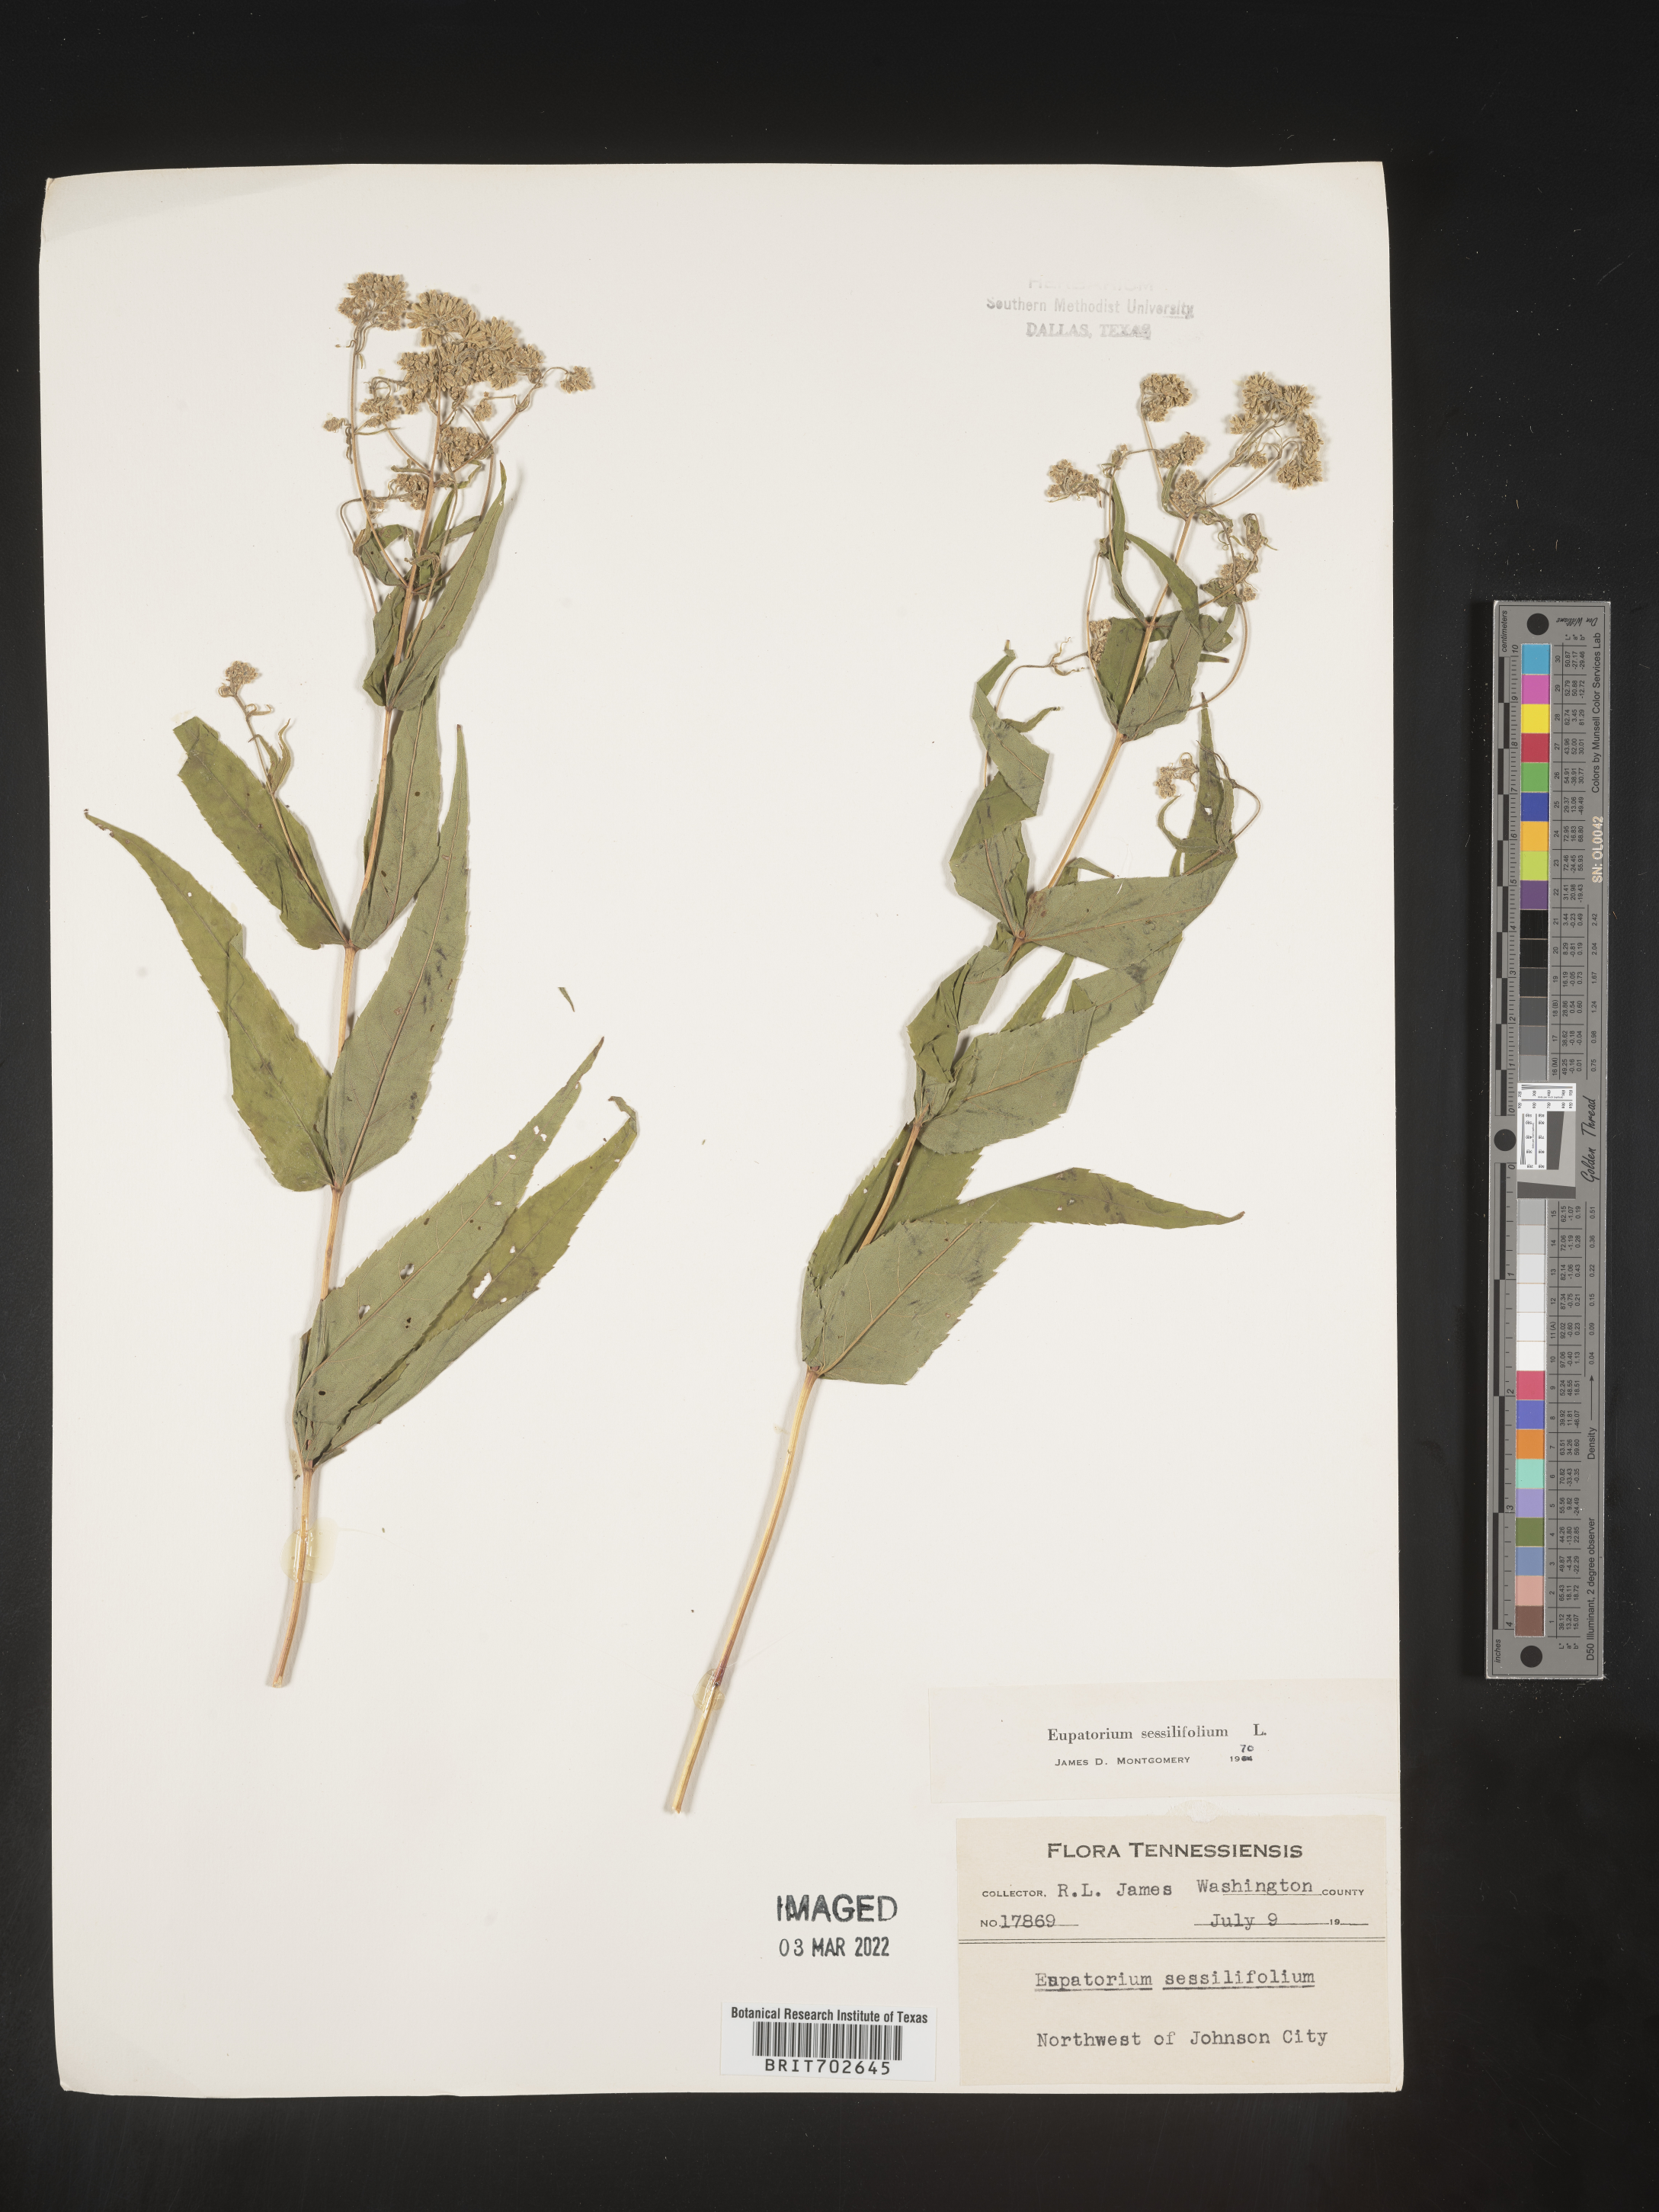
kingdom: Plantae
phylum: Tracheophyta
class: Magnoliopsida
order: Asterales
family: Asteraceae
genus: Eupatorium
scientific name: Eupatorium sessilifolium
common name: Upland boneset
